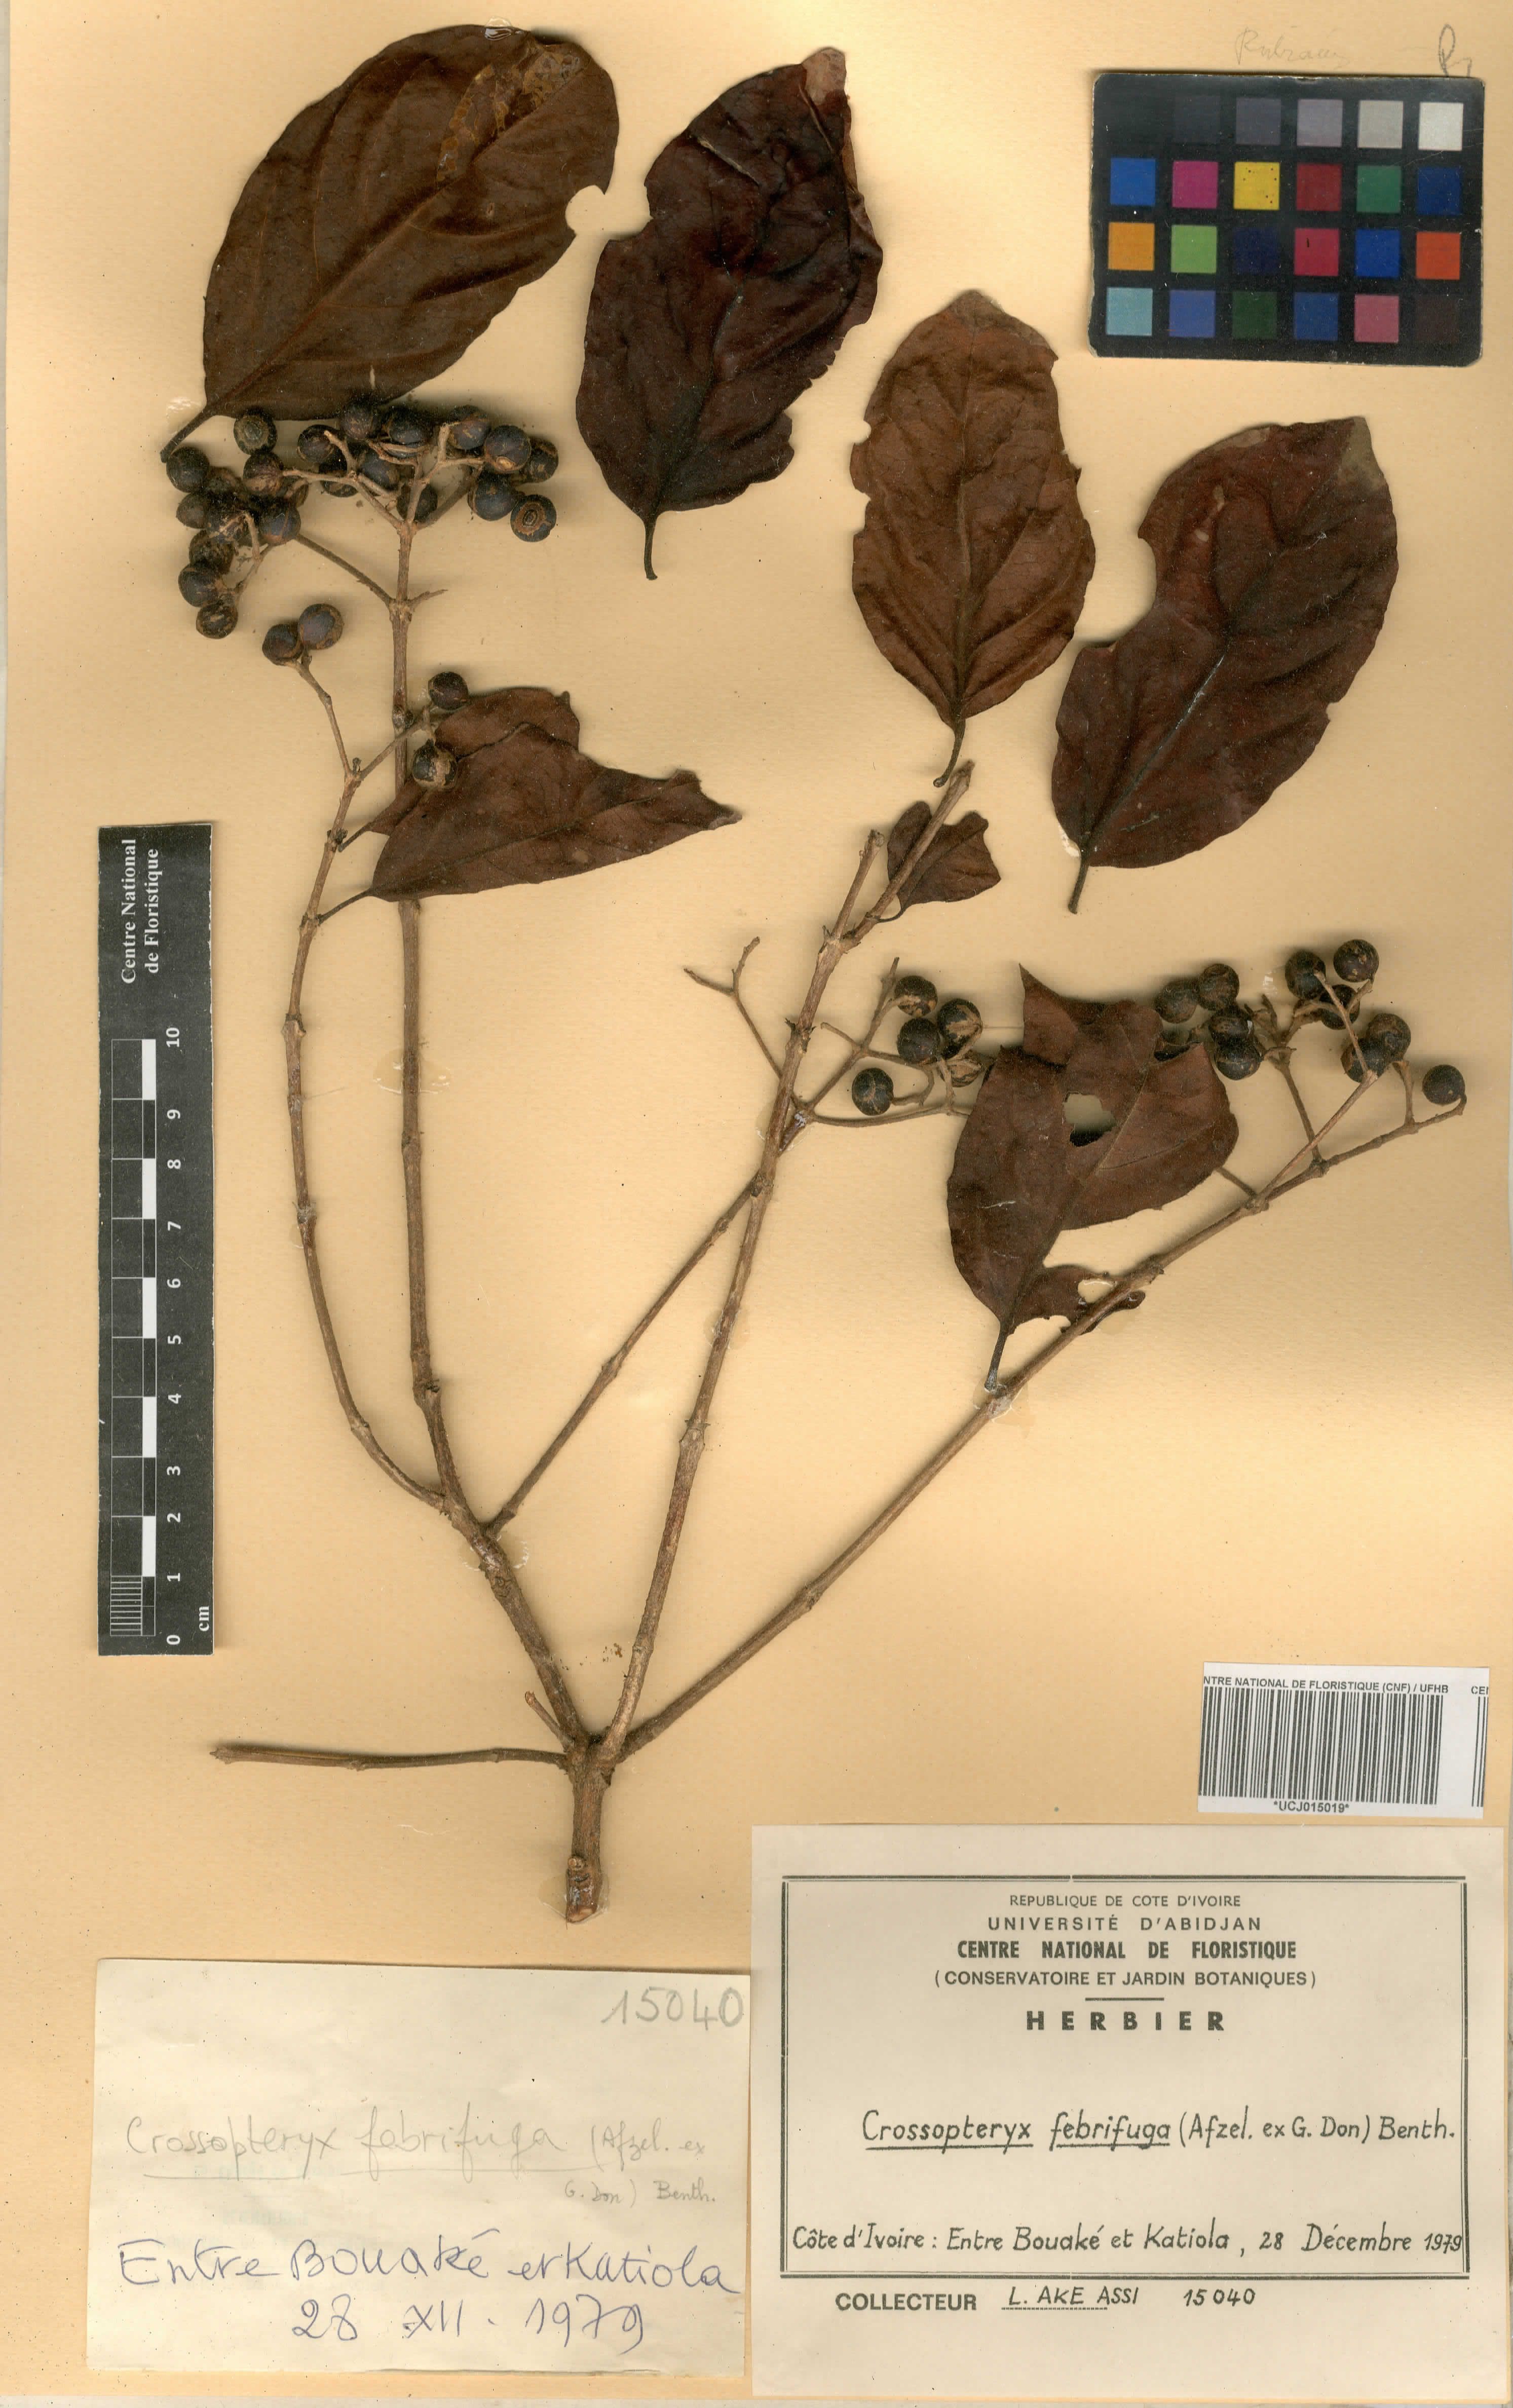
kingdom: Plantae
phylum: Tracheophyta
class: Magnoliopsida
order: Gentianales
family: Rubiaceae
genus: Crossopteryx
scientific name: Crossopteryx febrifuga
